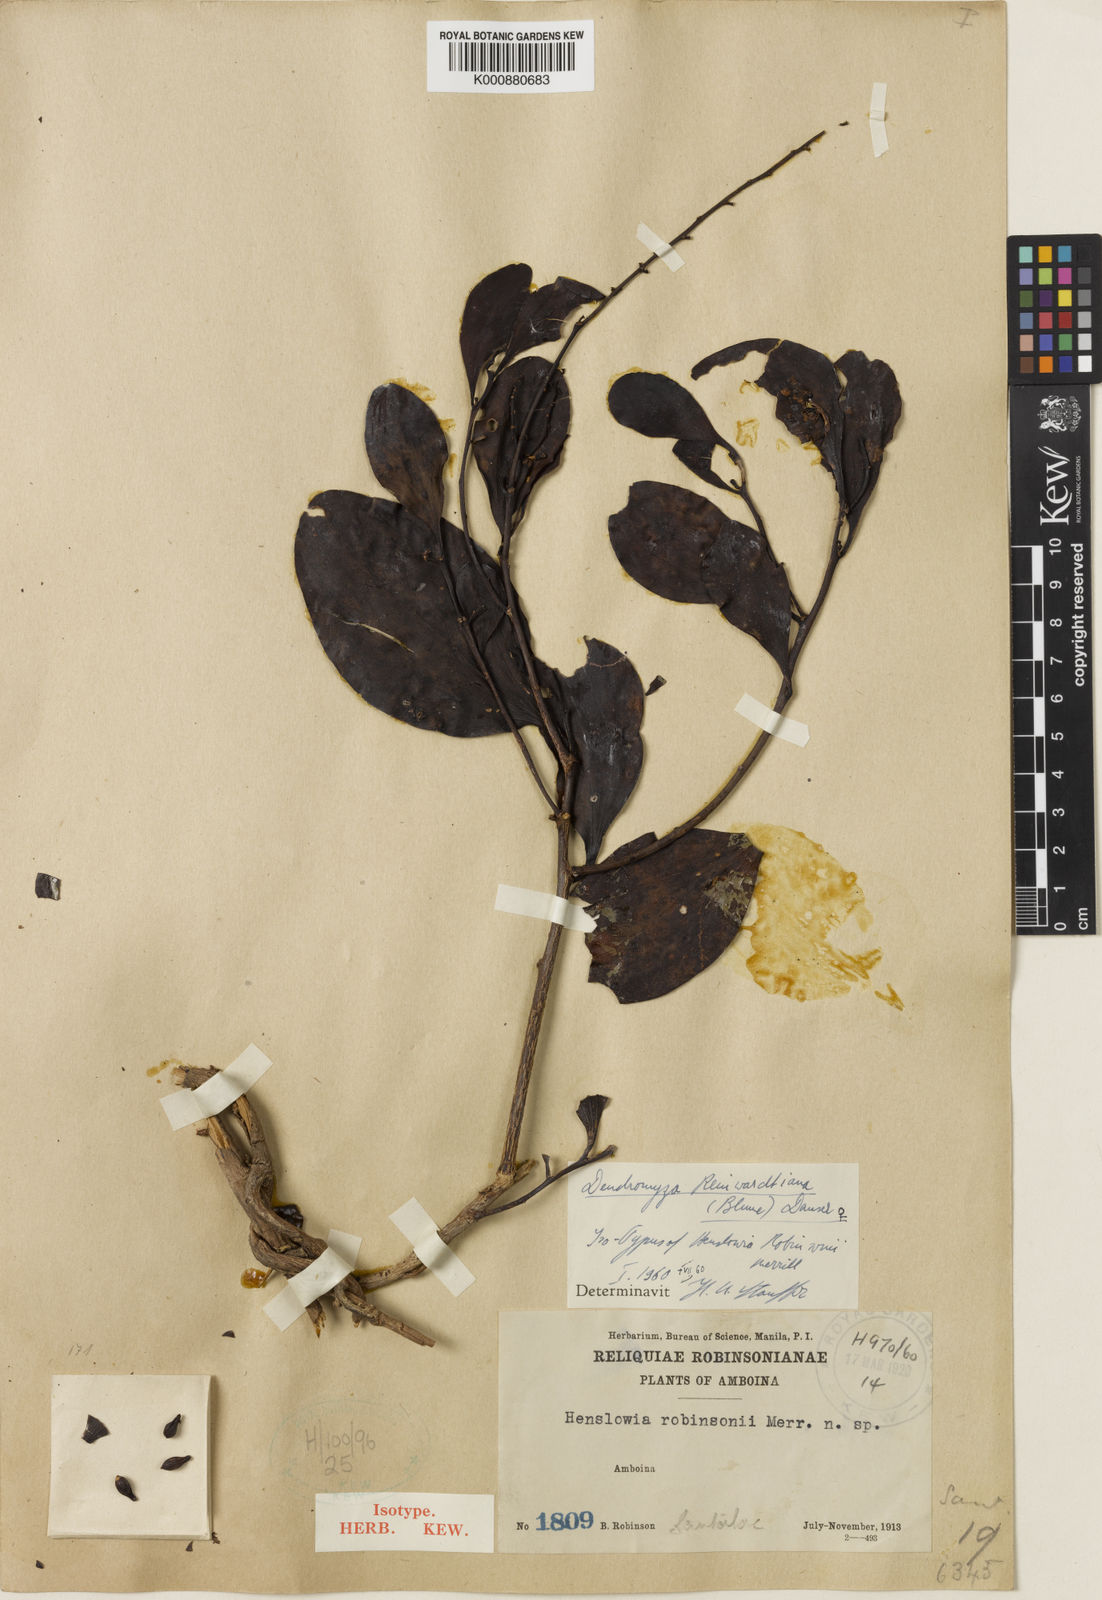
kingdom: Plantae
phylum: Tracheophyta
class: Magnoliopsida
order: Santalales
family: Amphorogynaceae
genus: Dendromyza
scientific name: Dendromyza reinwardtiana
